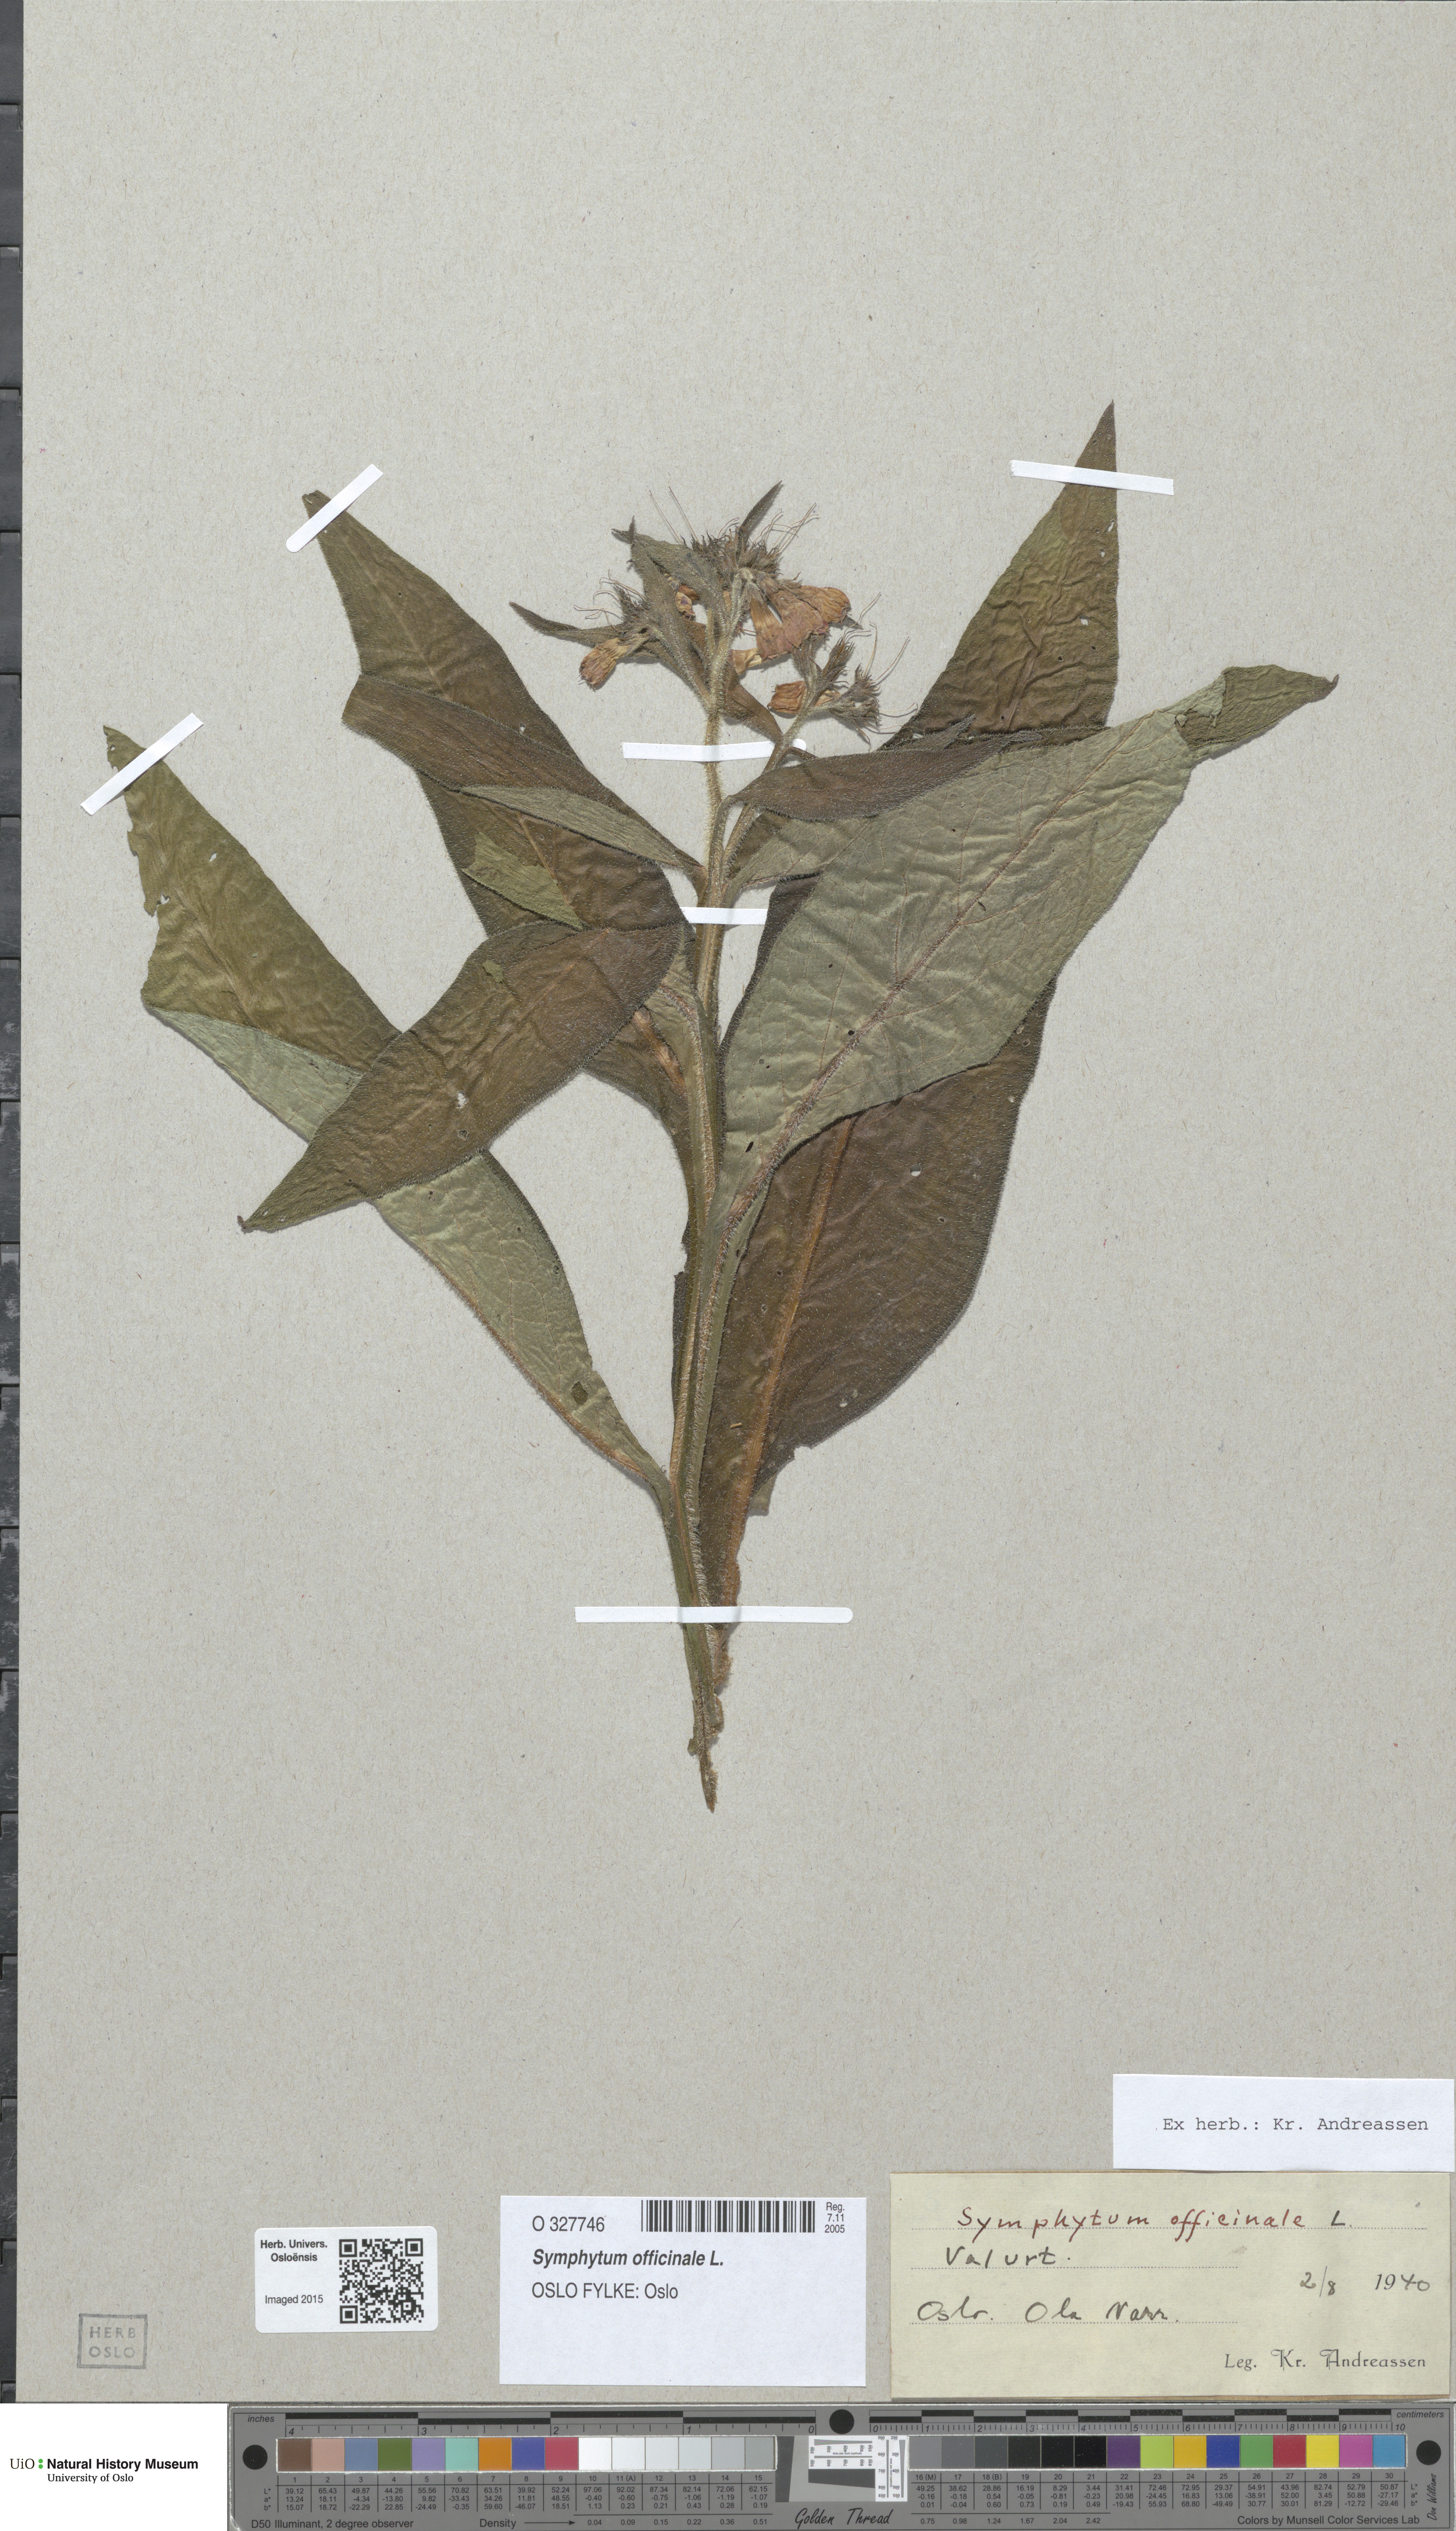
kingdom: Plantae
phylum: Tracheophyta
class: Magnoliopsida
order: Boraginales
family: Boraginaceae
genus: Symphytum
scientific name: Symphytum officinale
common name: Common comfrey
